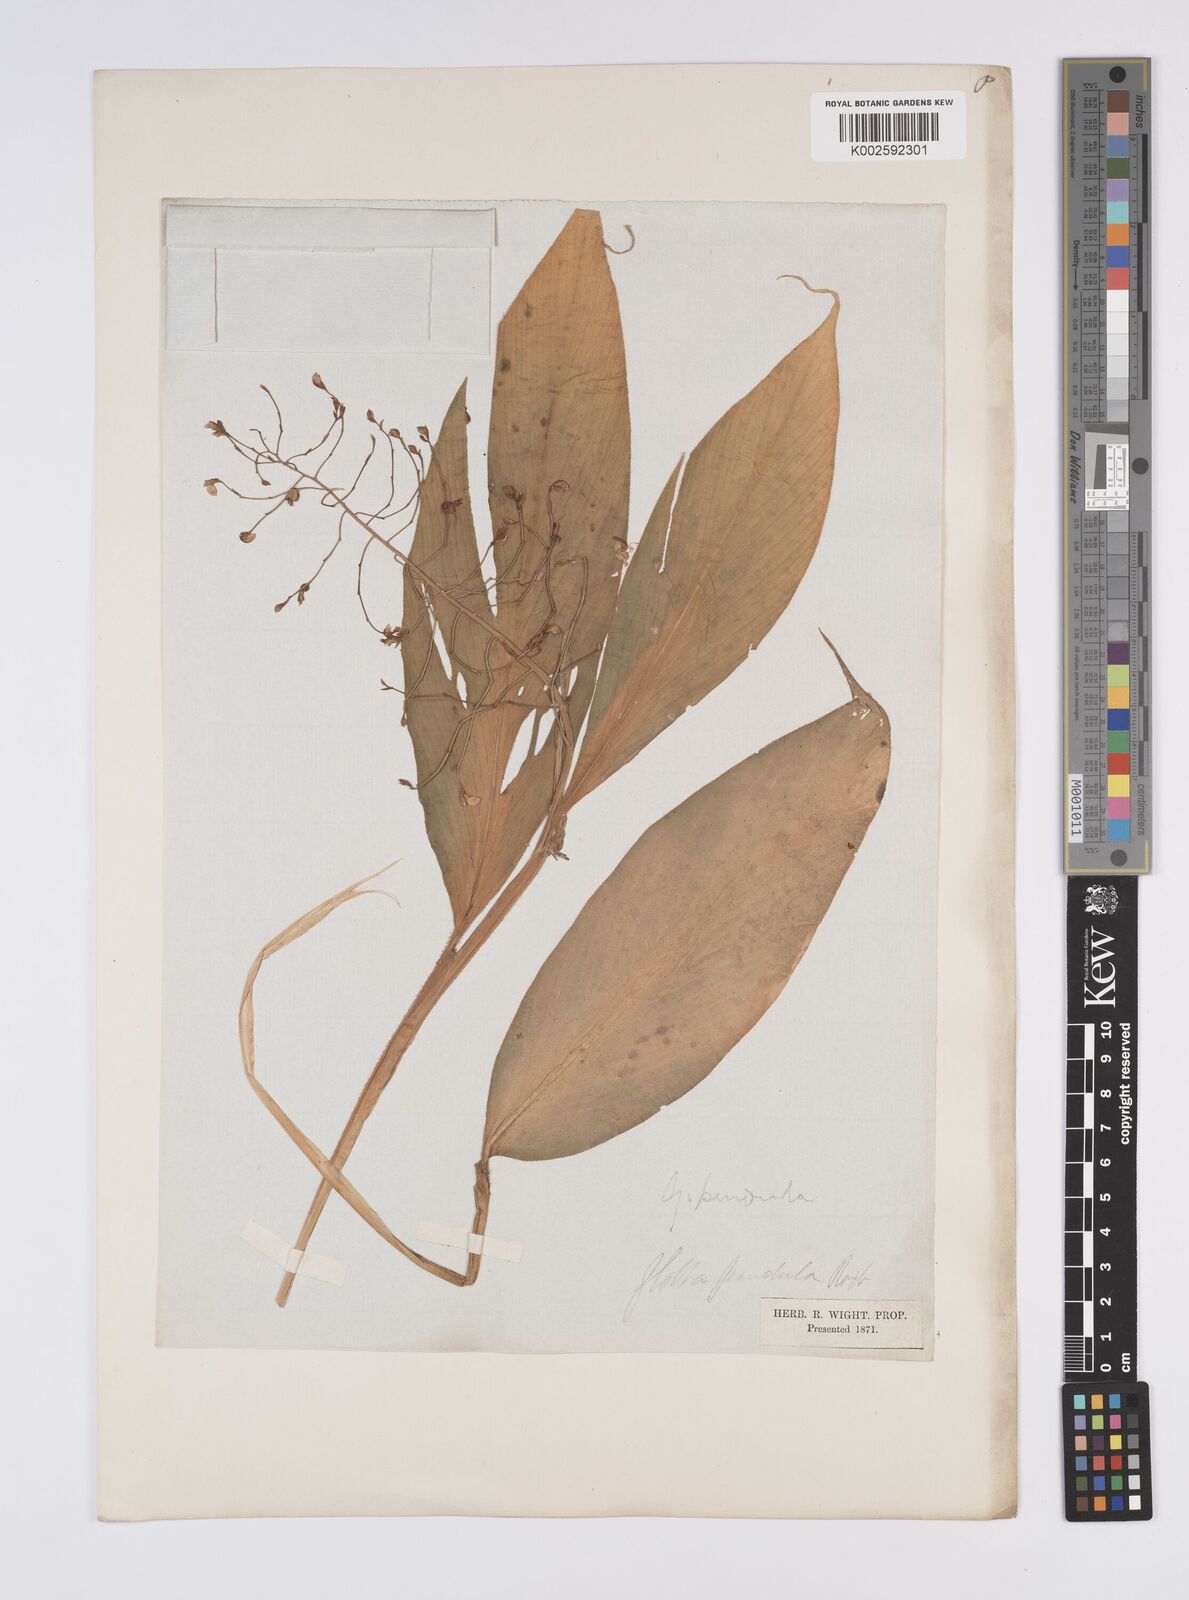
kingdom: Plantae
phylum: Tracheophyta
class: Liliopsida
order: Zingiberales
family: Zingiberaceae
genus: Globba
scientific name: Globba pendula
